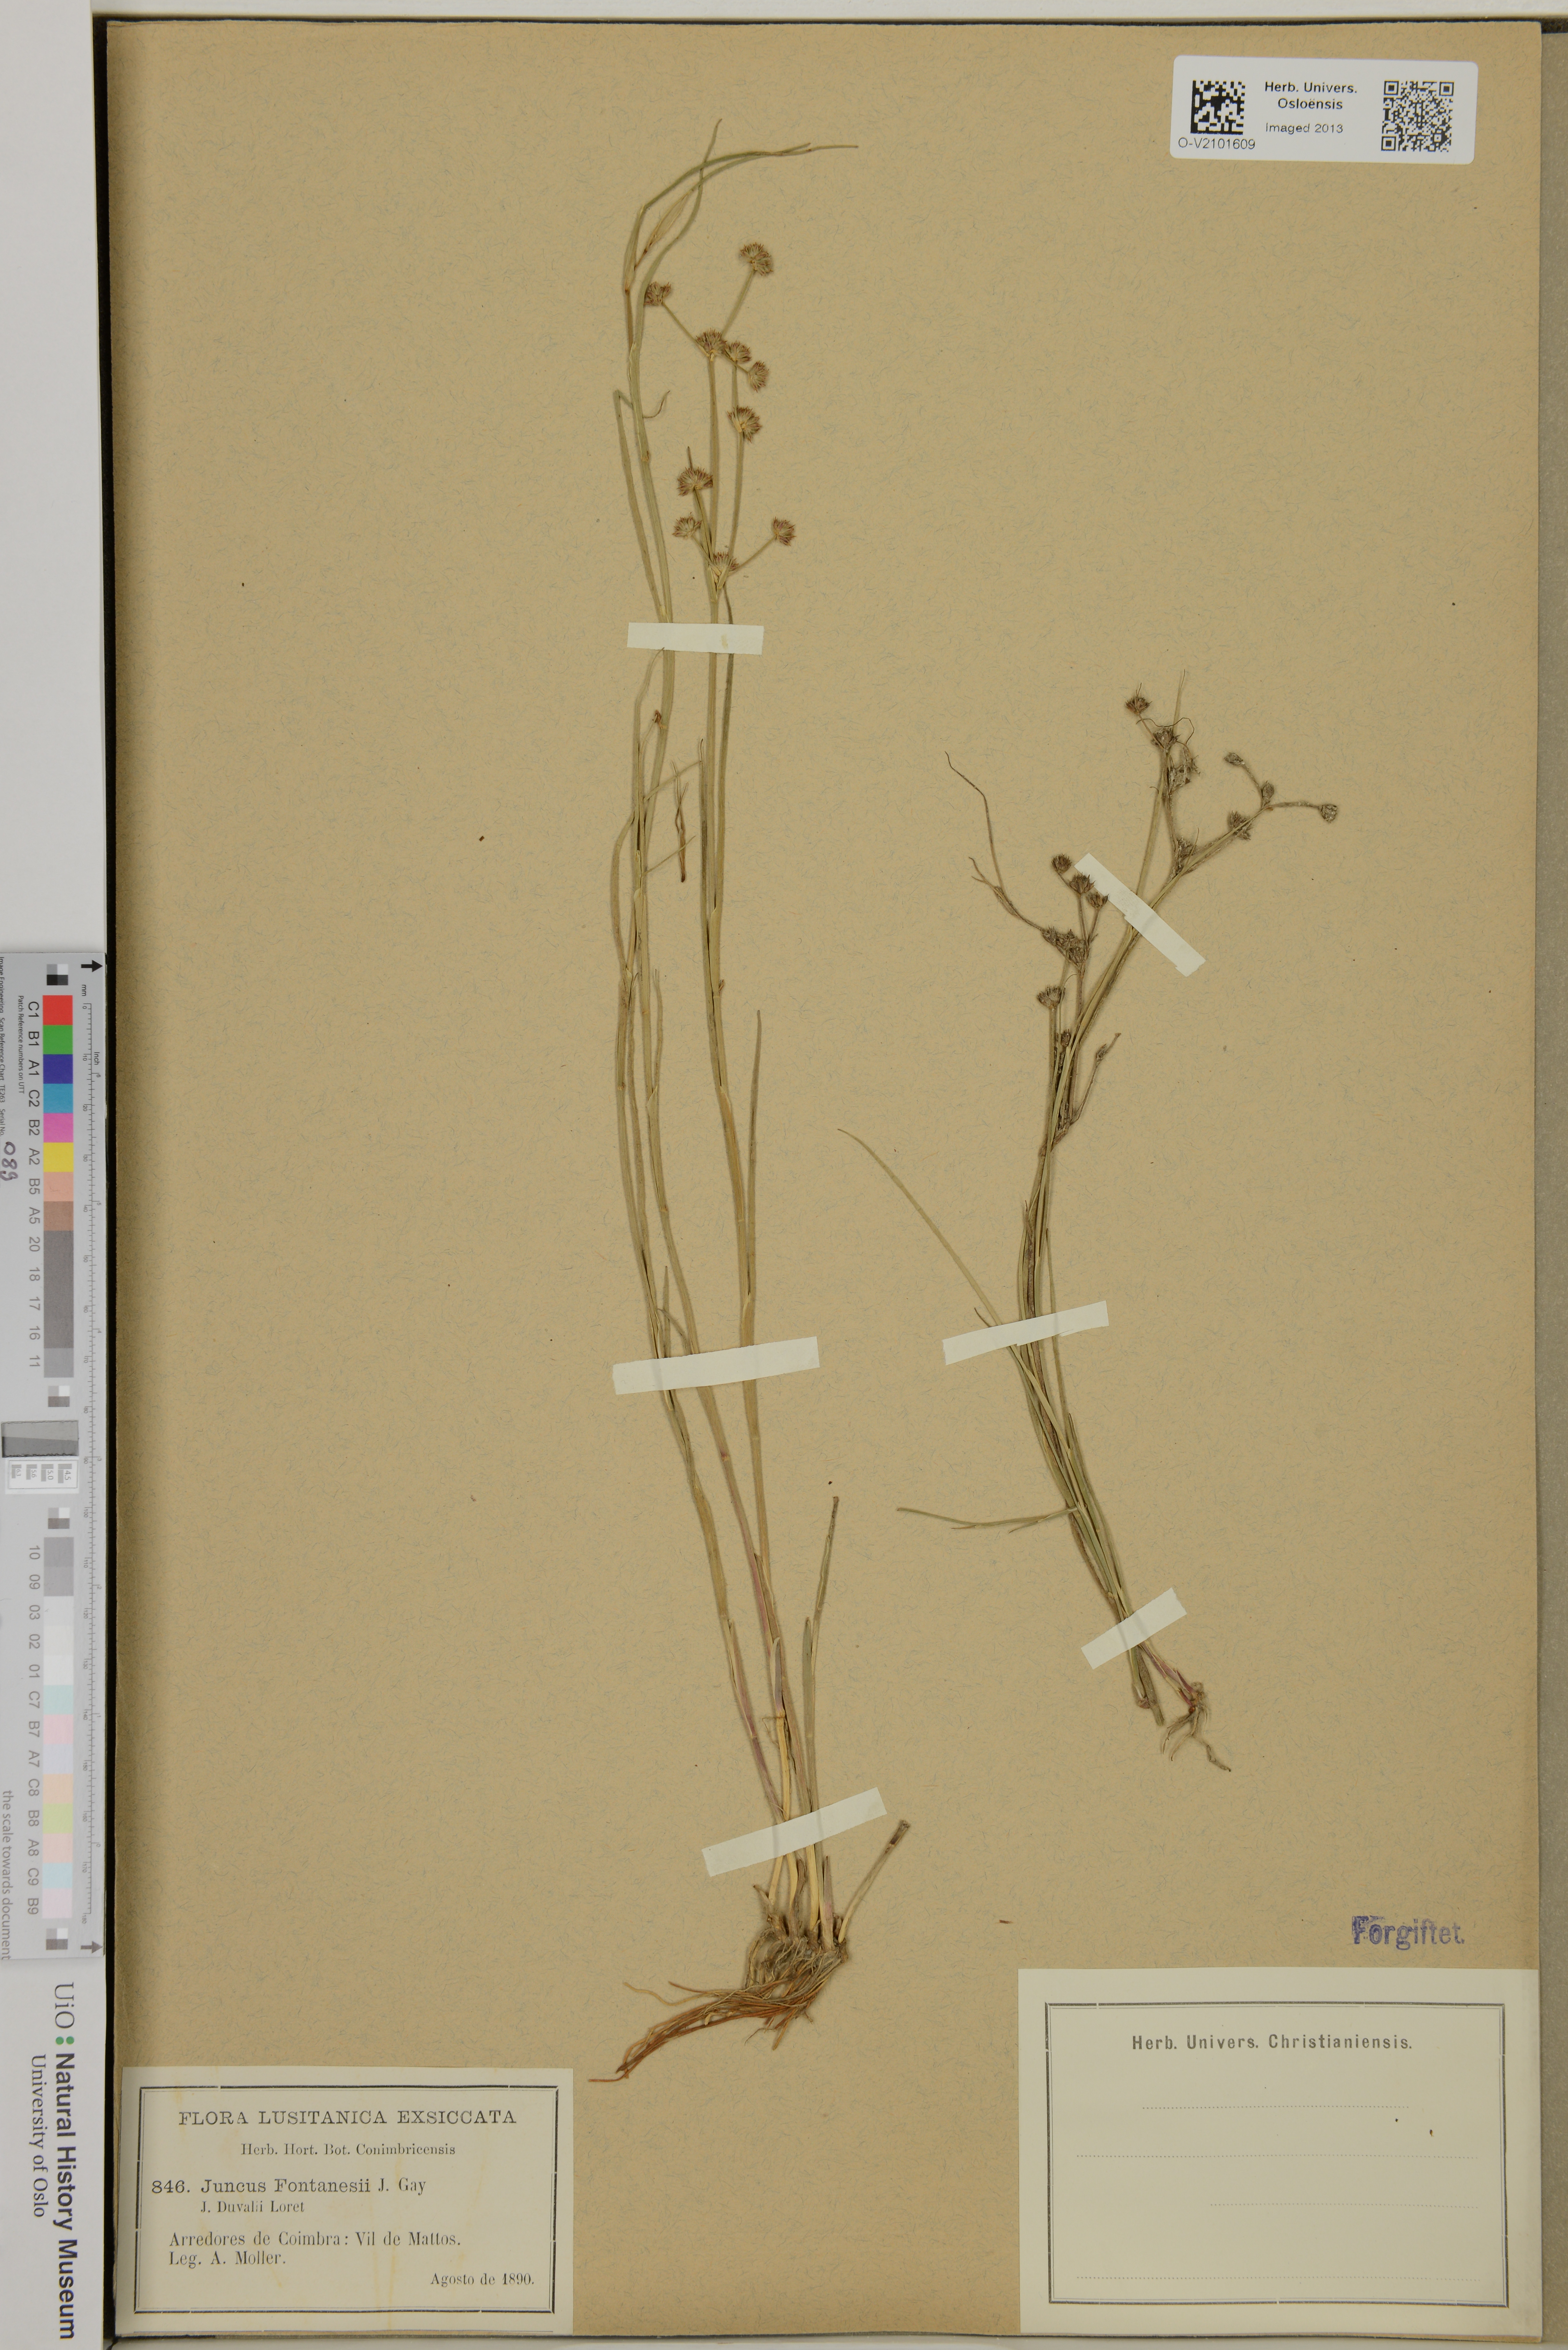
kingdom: Plantae
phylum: Tracheophyta
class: Liliopsida
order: Poales
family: Juncaceae
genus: Juncus
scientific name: Juncus fontanesii
